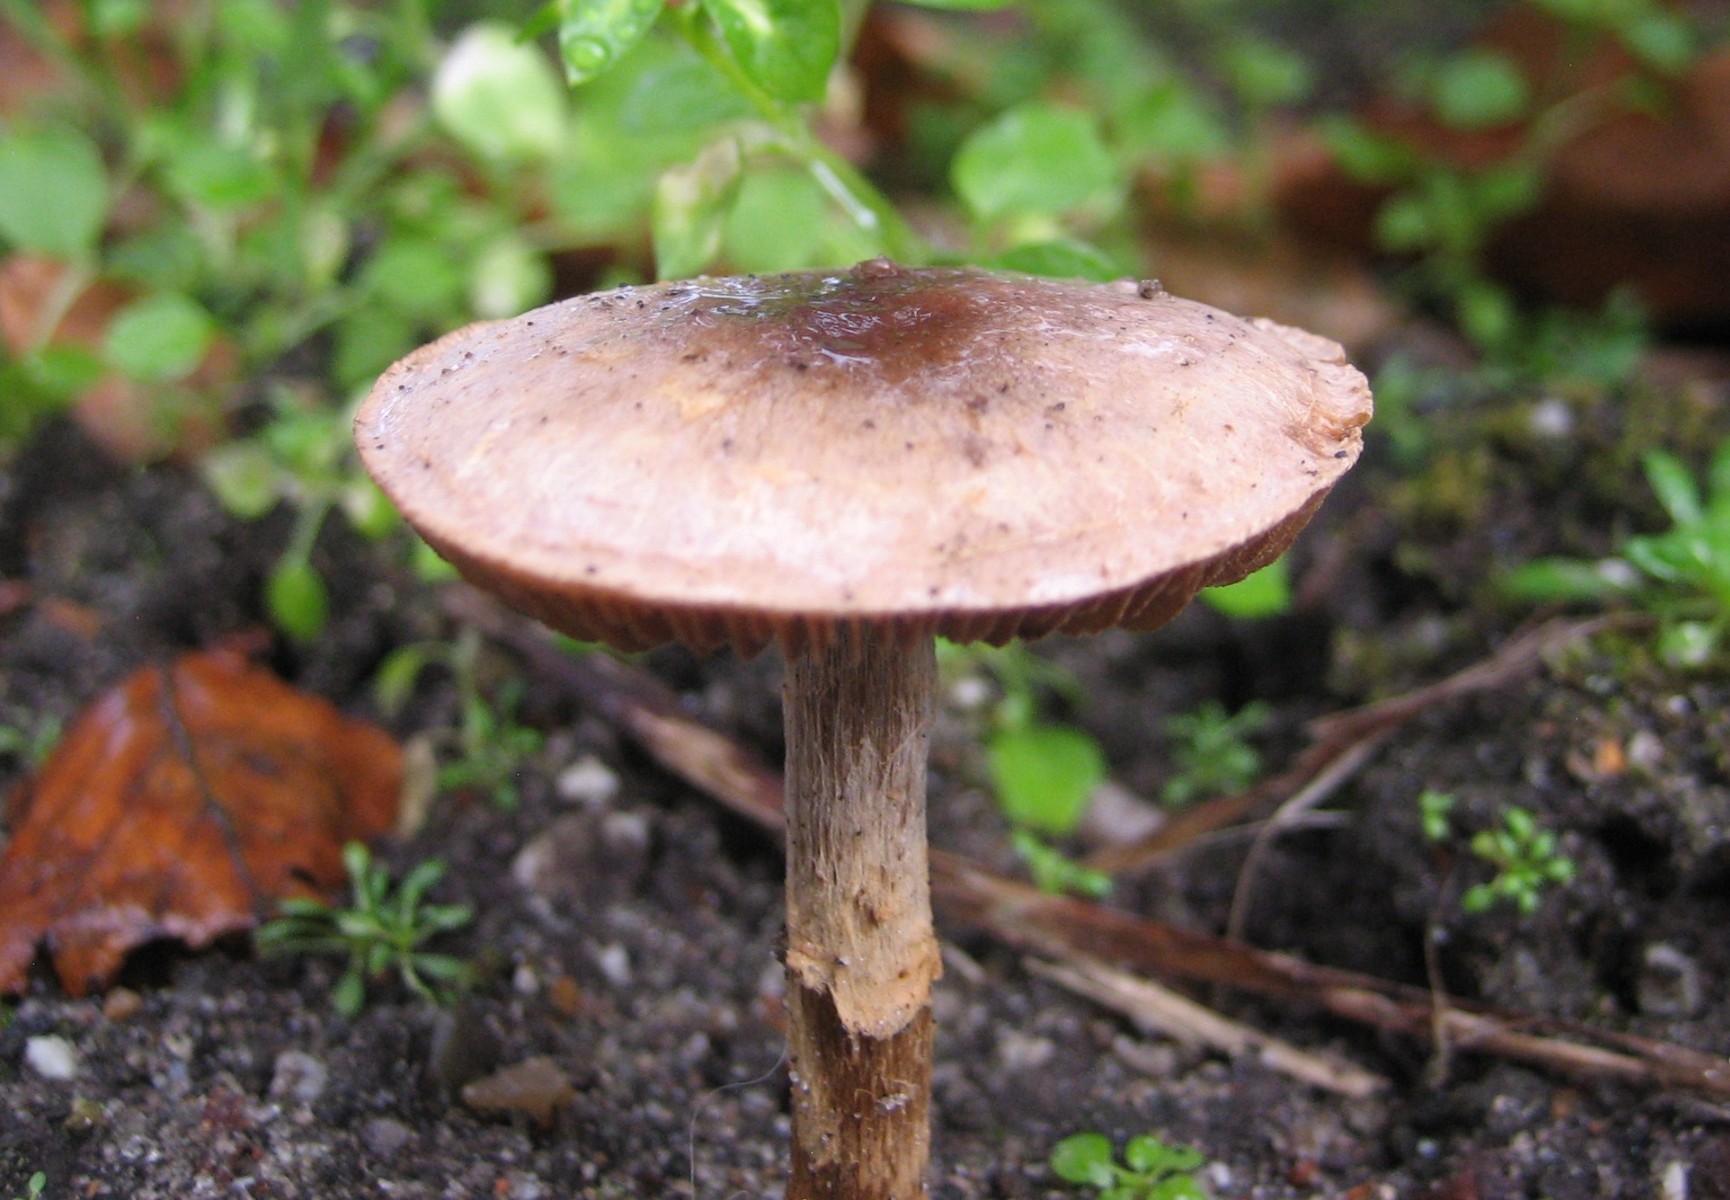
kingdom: Fungi
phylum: Basidiomycota
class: Agaricomycetes
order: Agaricales
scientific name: Agaricales
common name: champignonordenen
